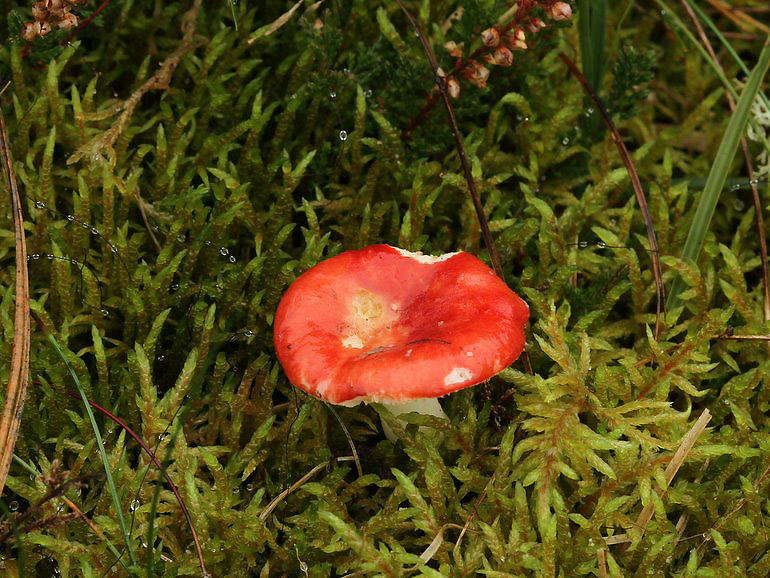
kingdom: Fungi
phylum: Basidiomycota
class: Agaricomycetes
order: Russulales
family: Russulaceae
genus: Russula
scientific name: Russula emetica
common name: stor gift-skørhat
